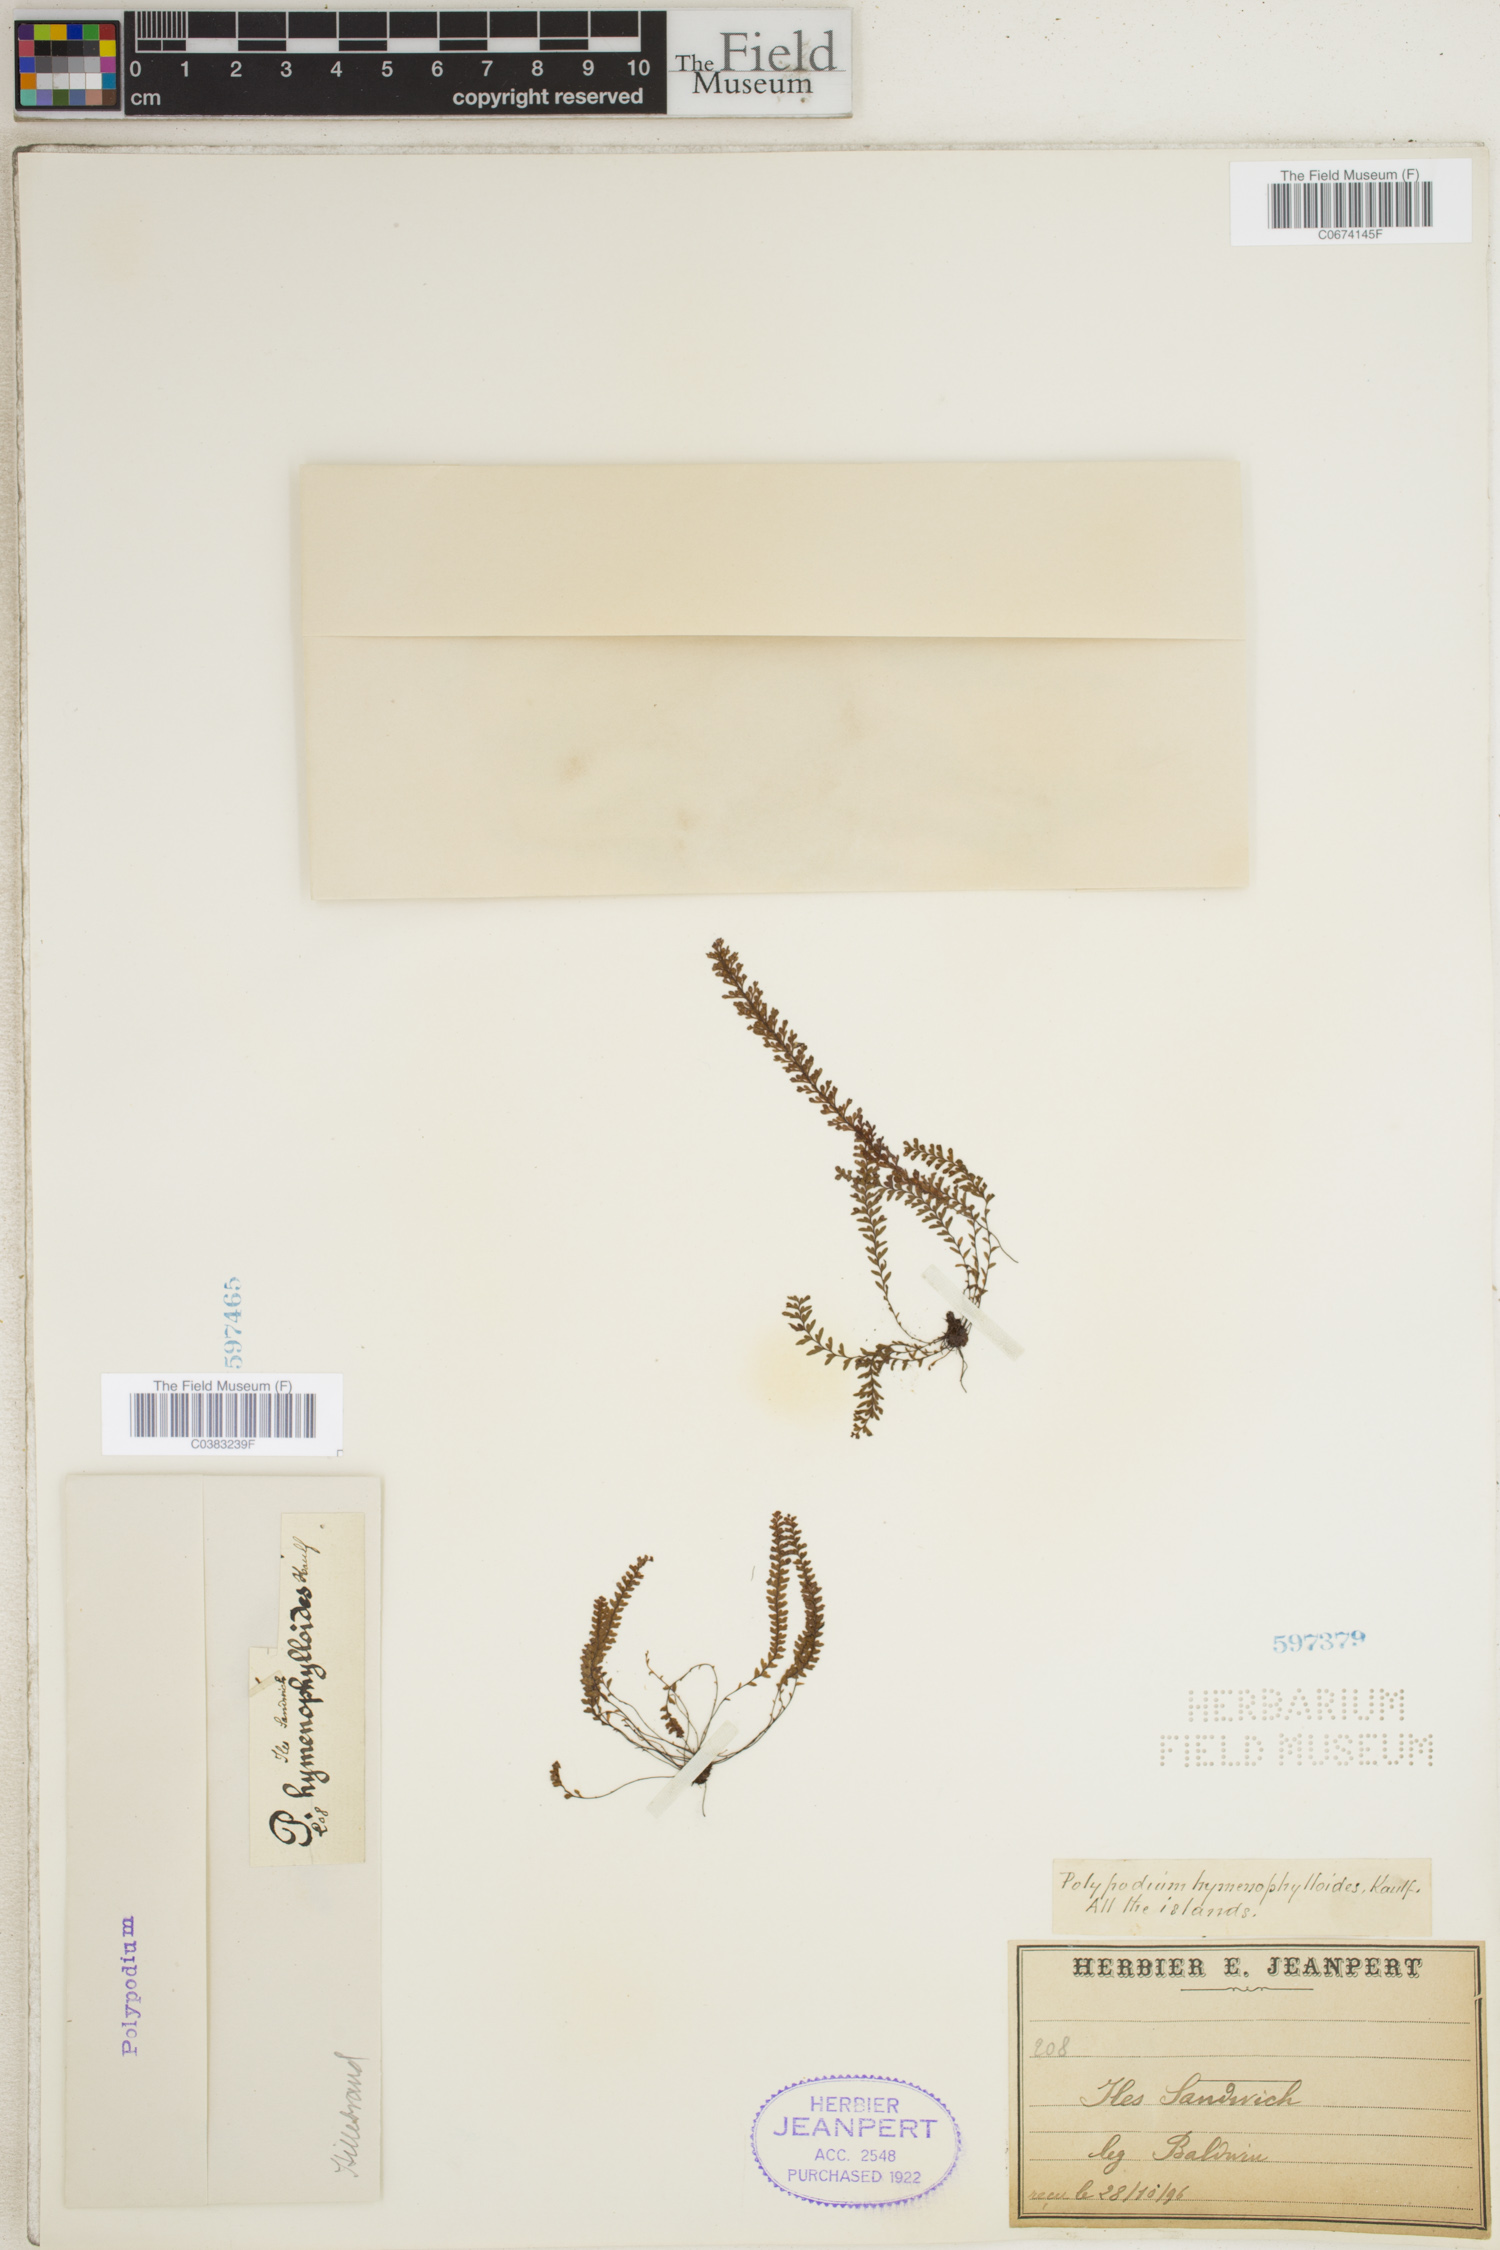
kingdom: Plantae
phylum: Tracheophyta
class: Polypodiopsida
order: Polypodiales
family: Polypodiaceae
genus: Adenophorus
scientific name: Adenophorus hymenophylloides
